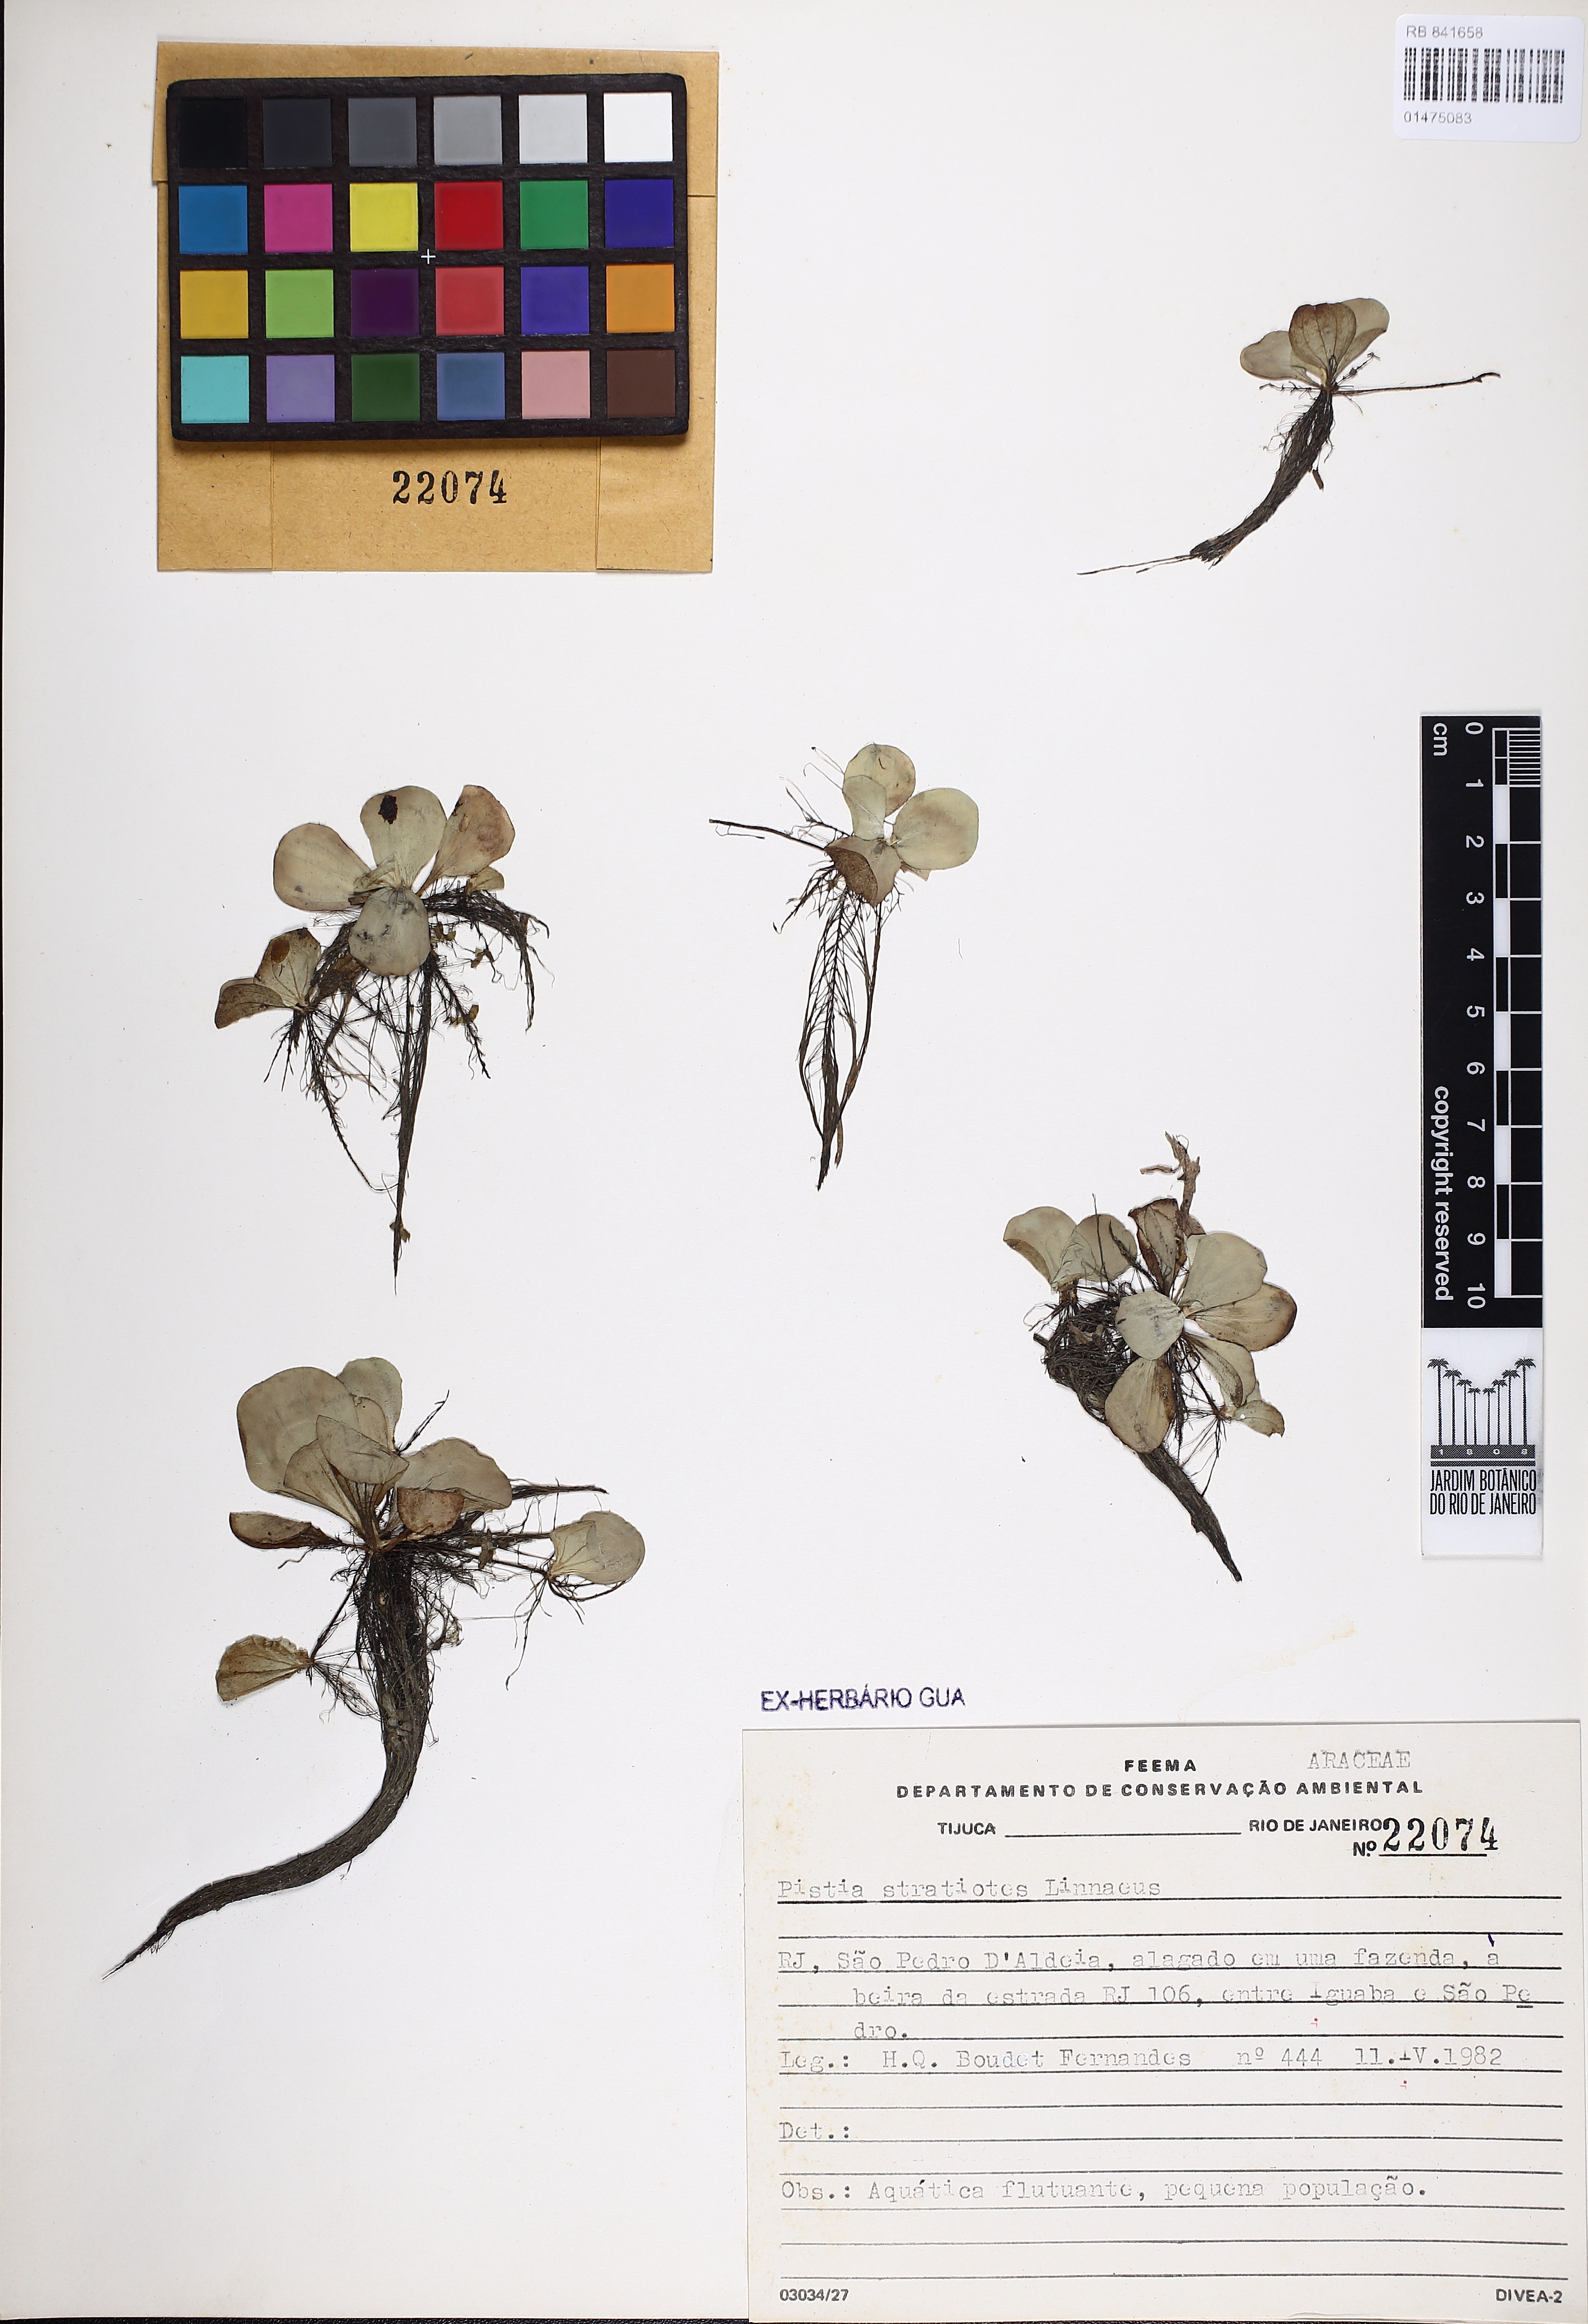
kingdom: Plantae
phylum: Tracheophyta
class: Liliopsida
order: Alismatales
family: Araceae
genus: Pistia
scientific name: Pistia stratiotes
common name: Water lettuce
